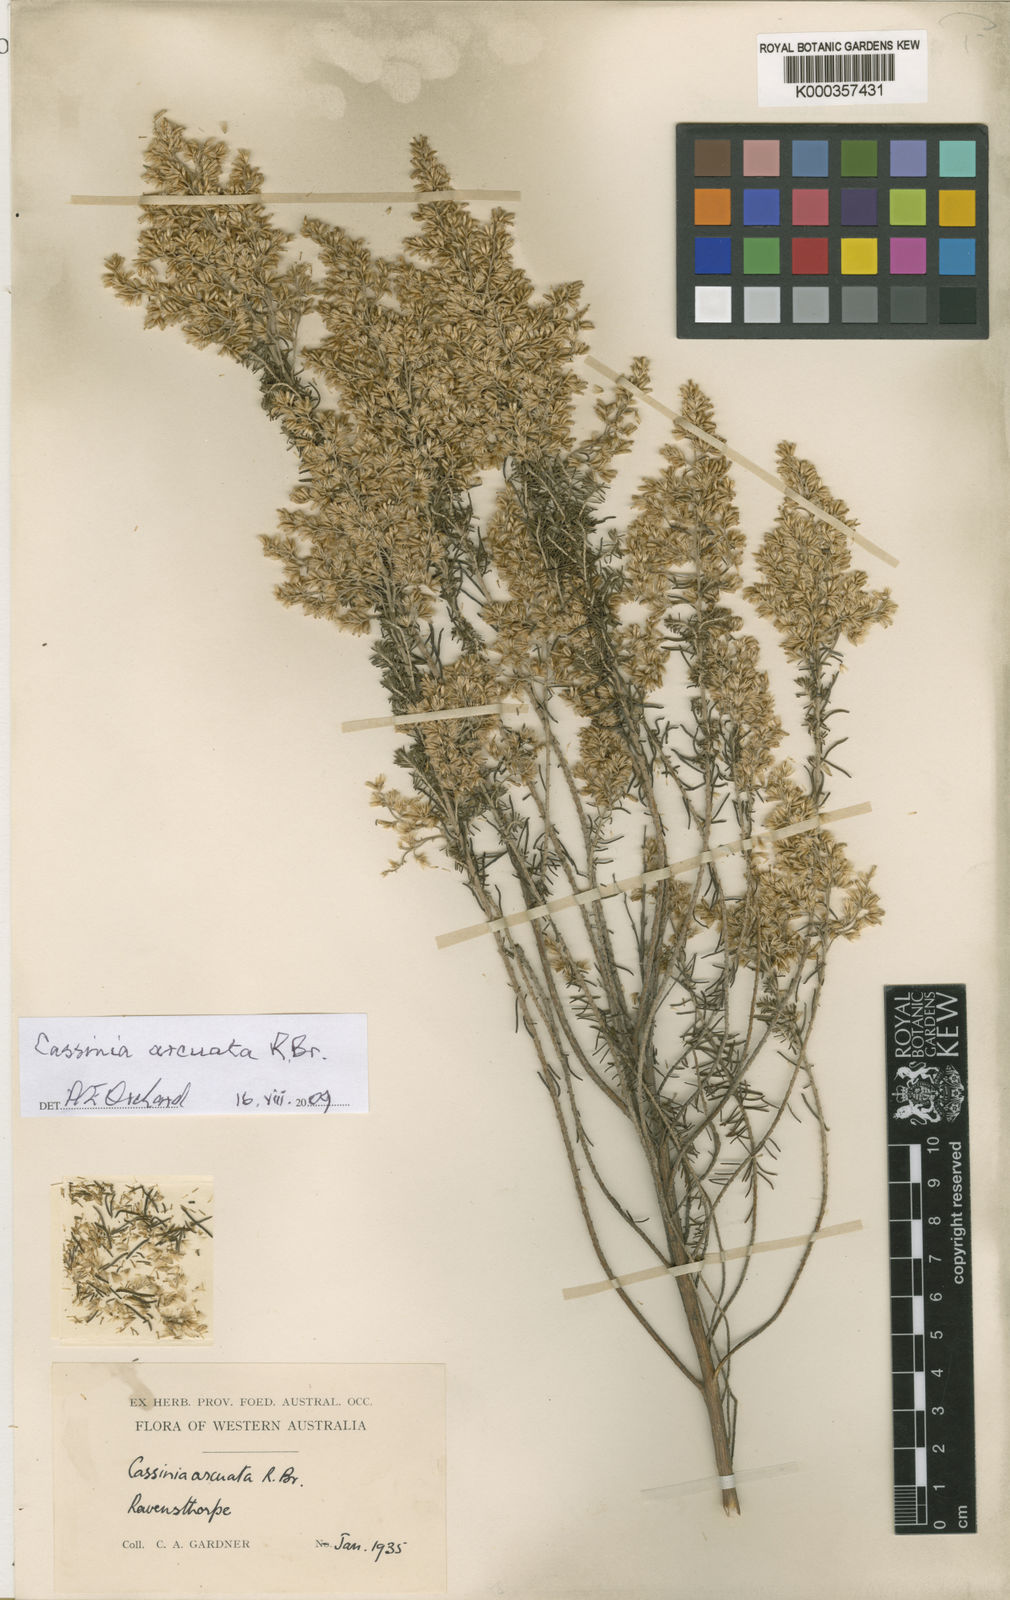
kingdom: Plantae
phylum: Tracheophyta
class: Magnoliopsida
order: Asterales
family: Asteraceae
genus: Cassinia
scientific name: Cassinia arcuata
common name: Chineseshrub
